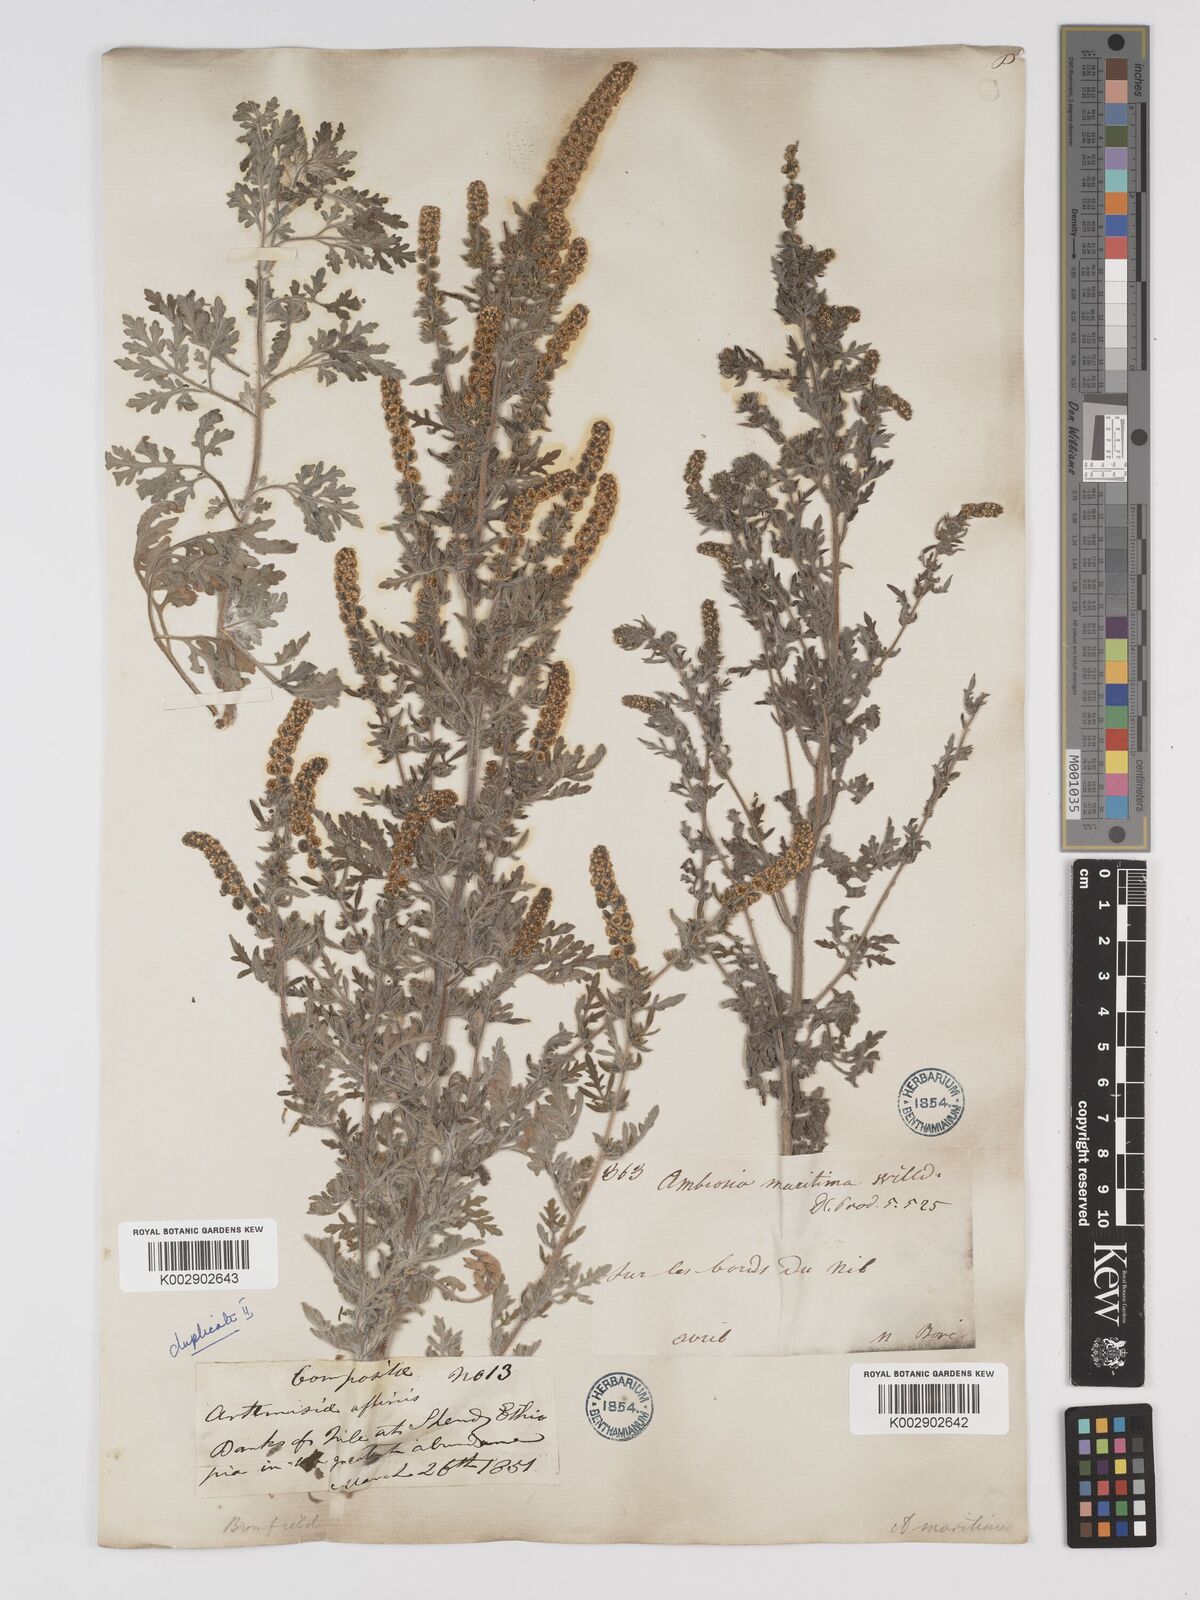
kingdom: Plantae
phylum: Tracheophyta
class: Magnoliopsida
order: Asterales
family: Asteraceae
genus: Ambrosia
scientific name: Ambrosia maritima
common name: Sea ambrosia
